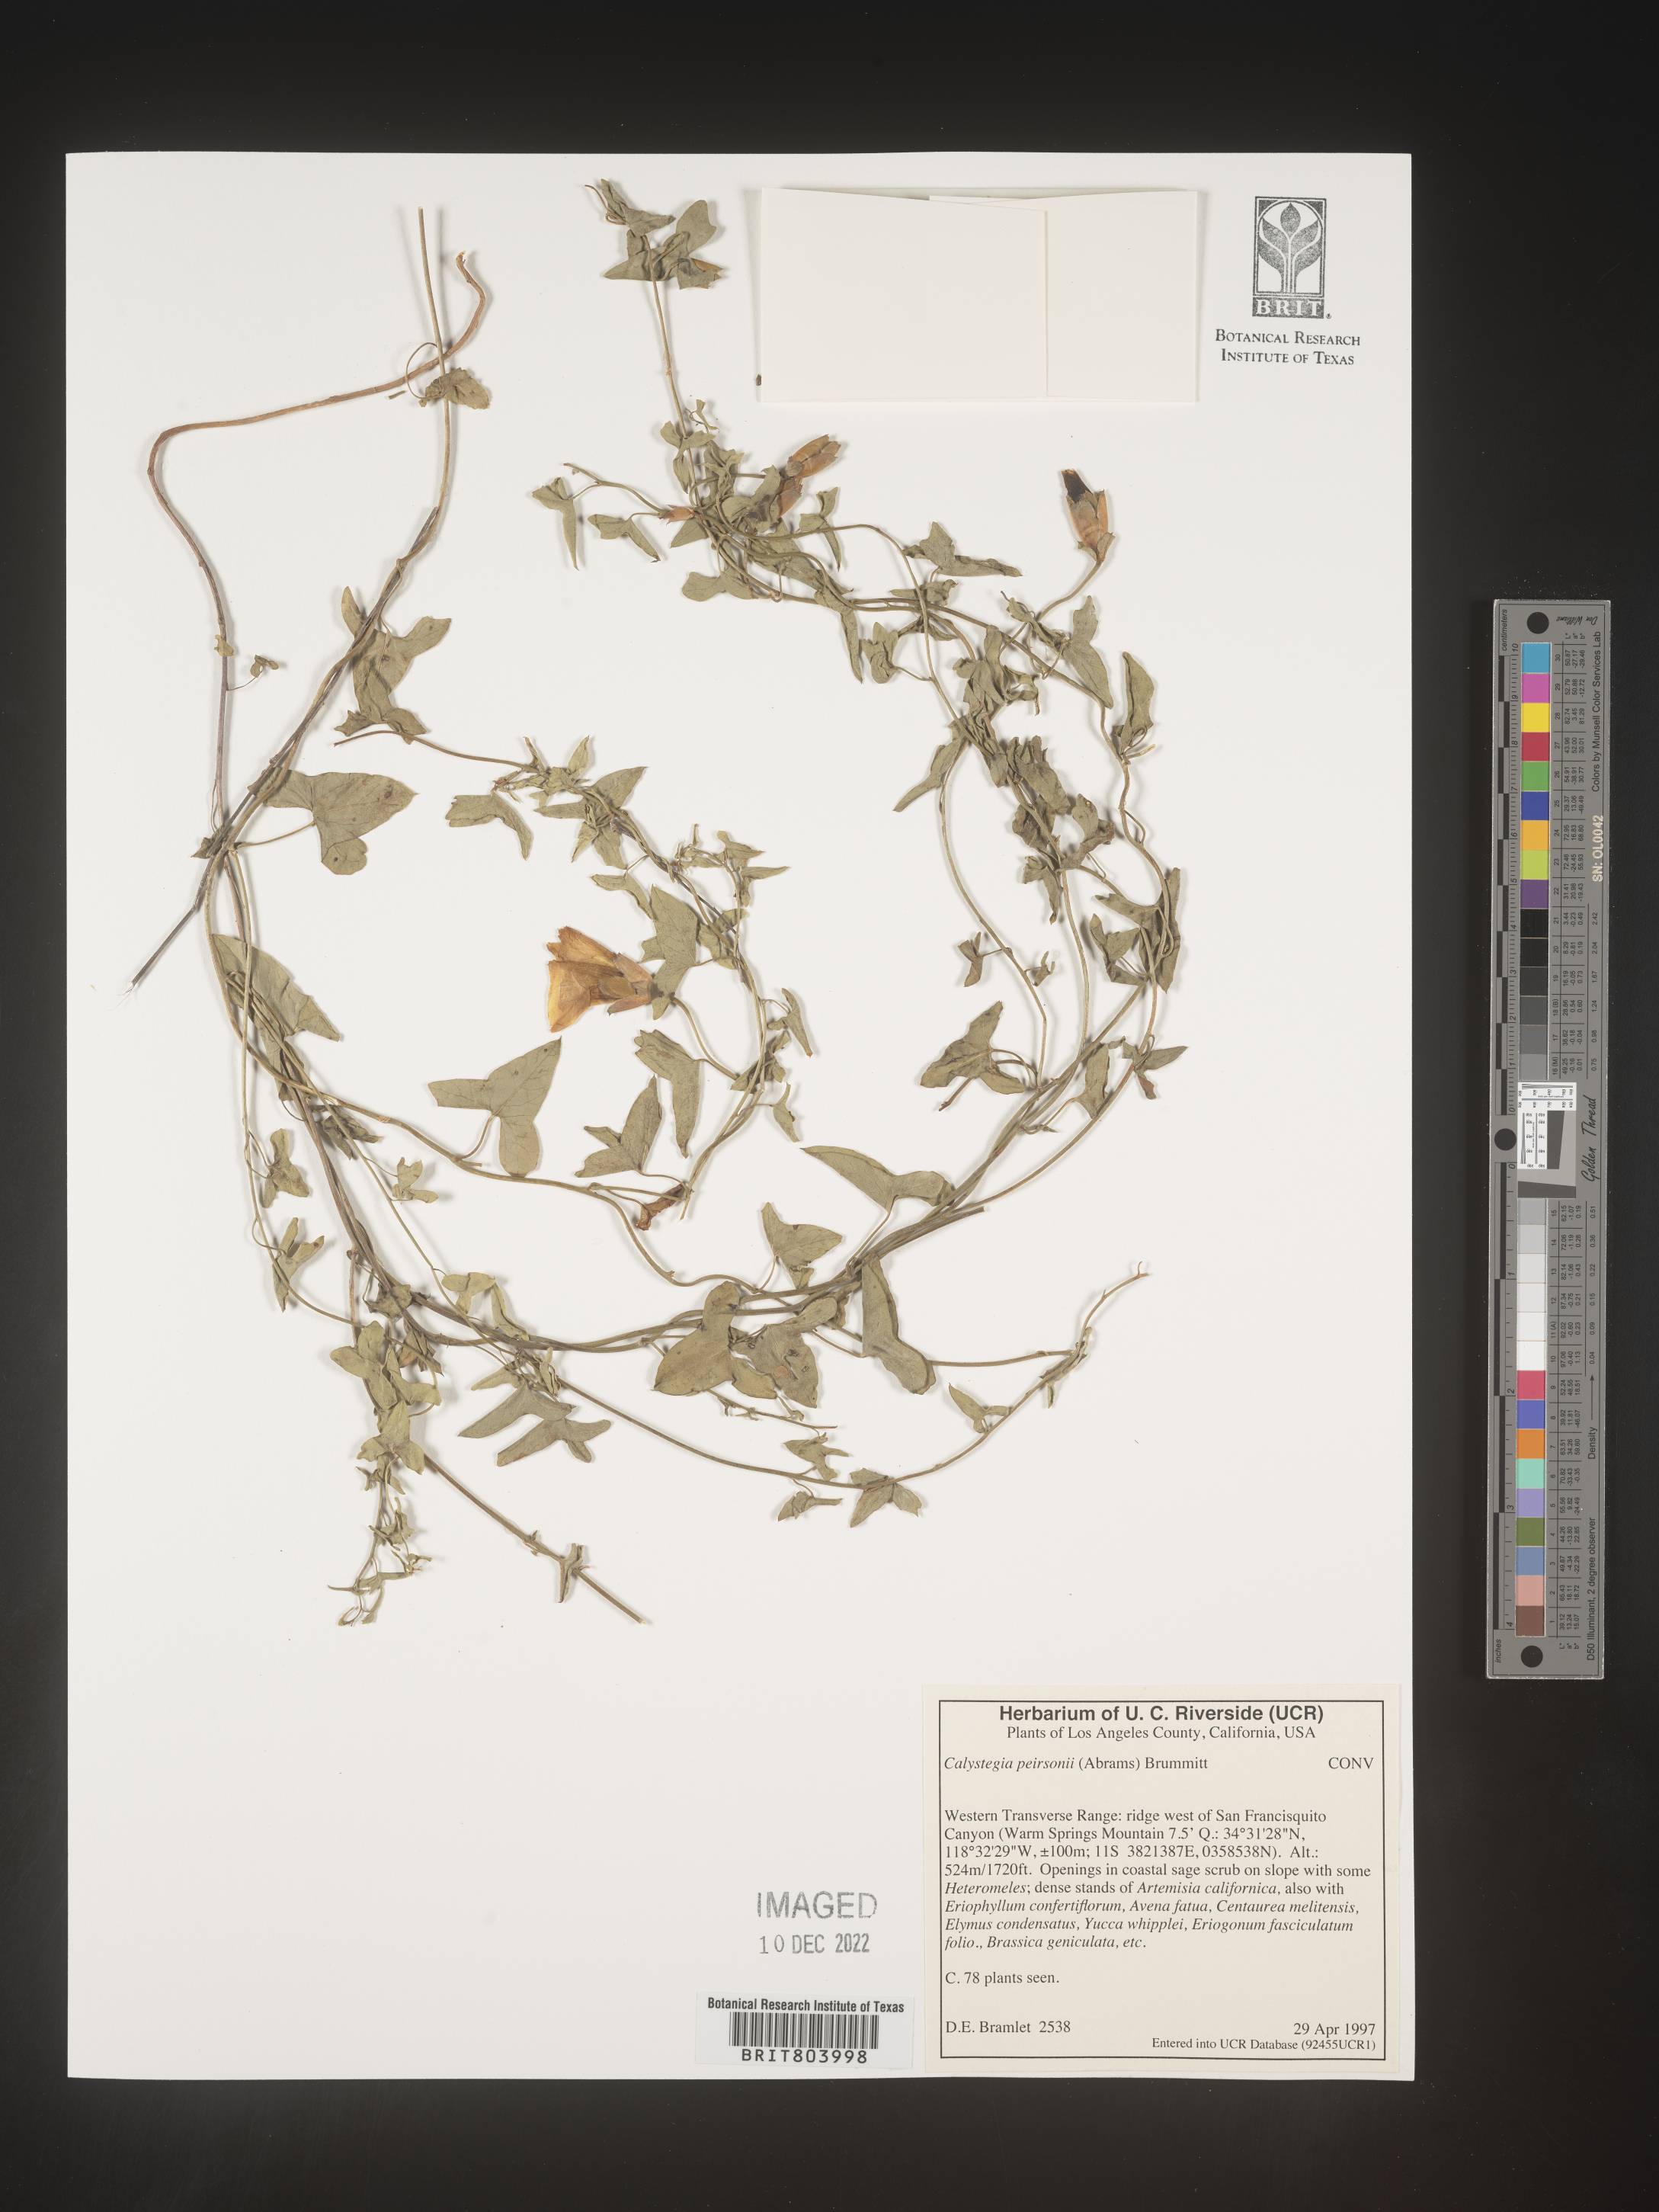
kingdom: Plantae
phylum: Tracheophyta
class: Magnoliopsida
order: Solanales
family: Convolvulaceae
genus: Calystegia
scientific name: Calystegia
